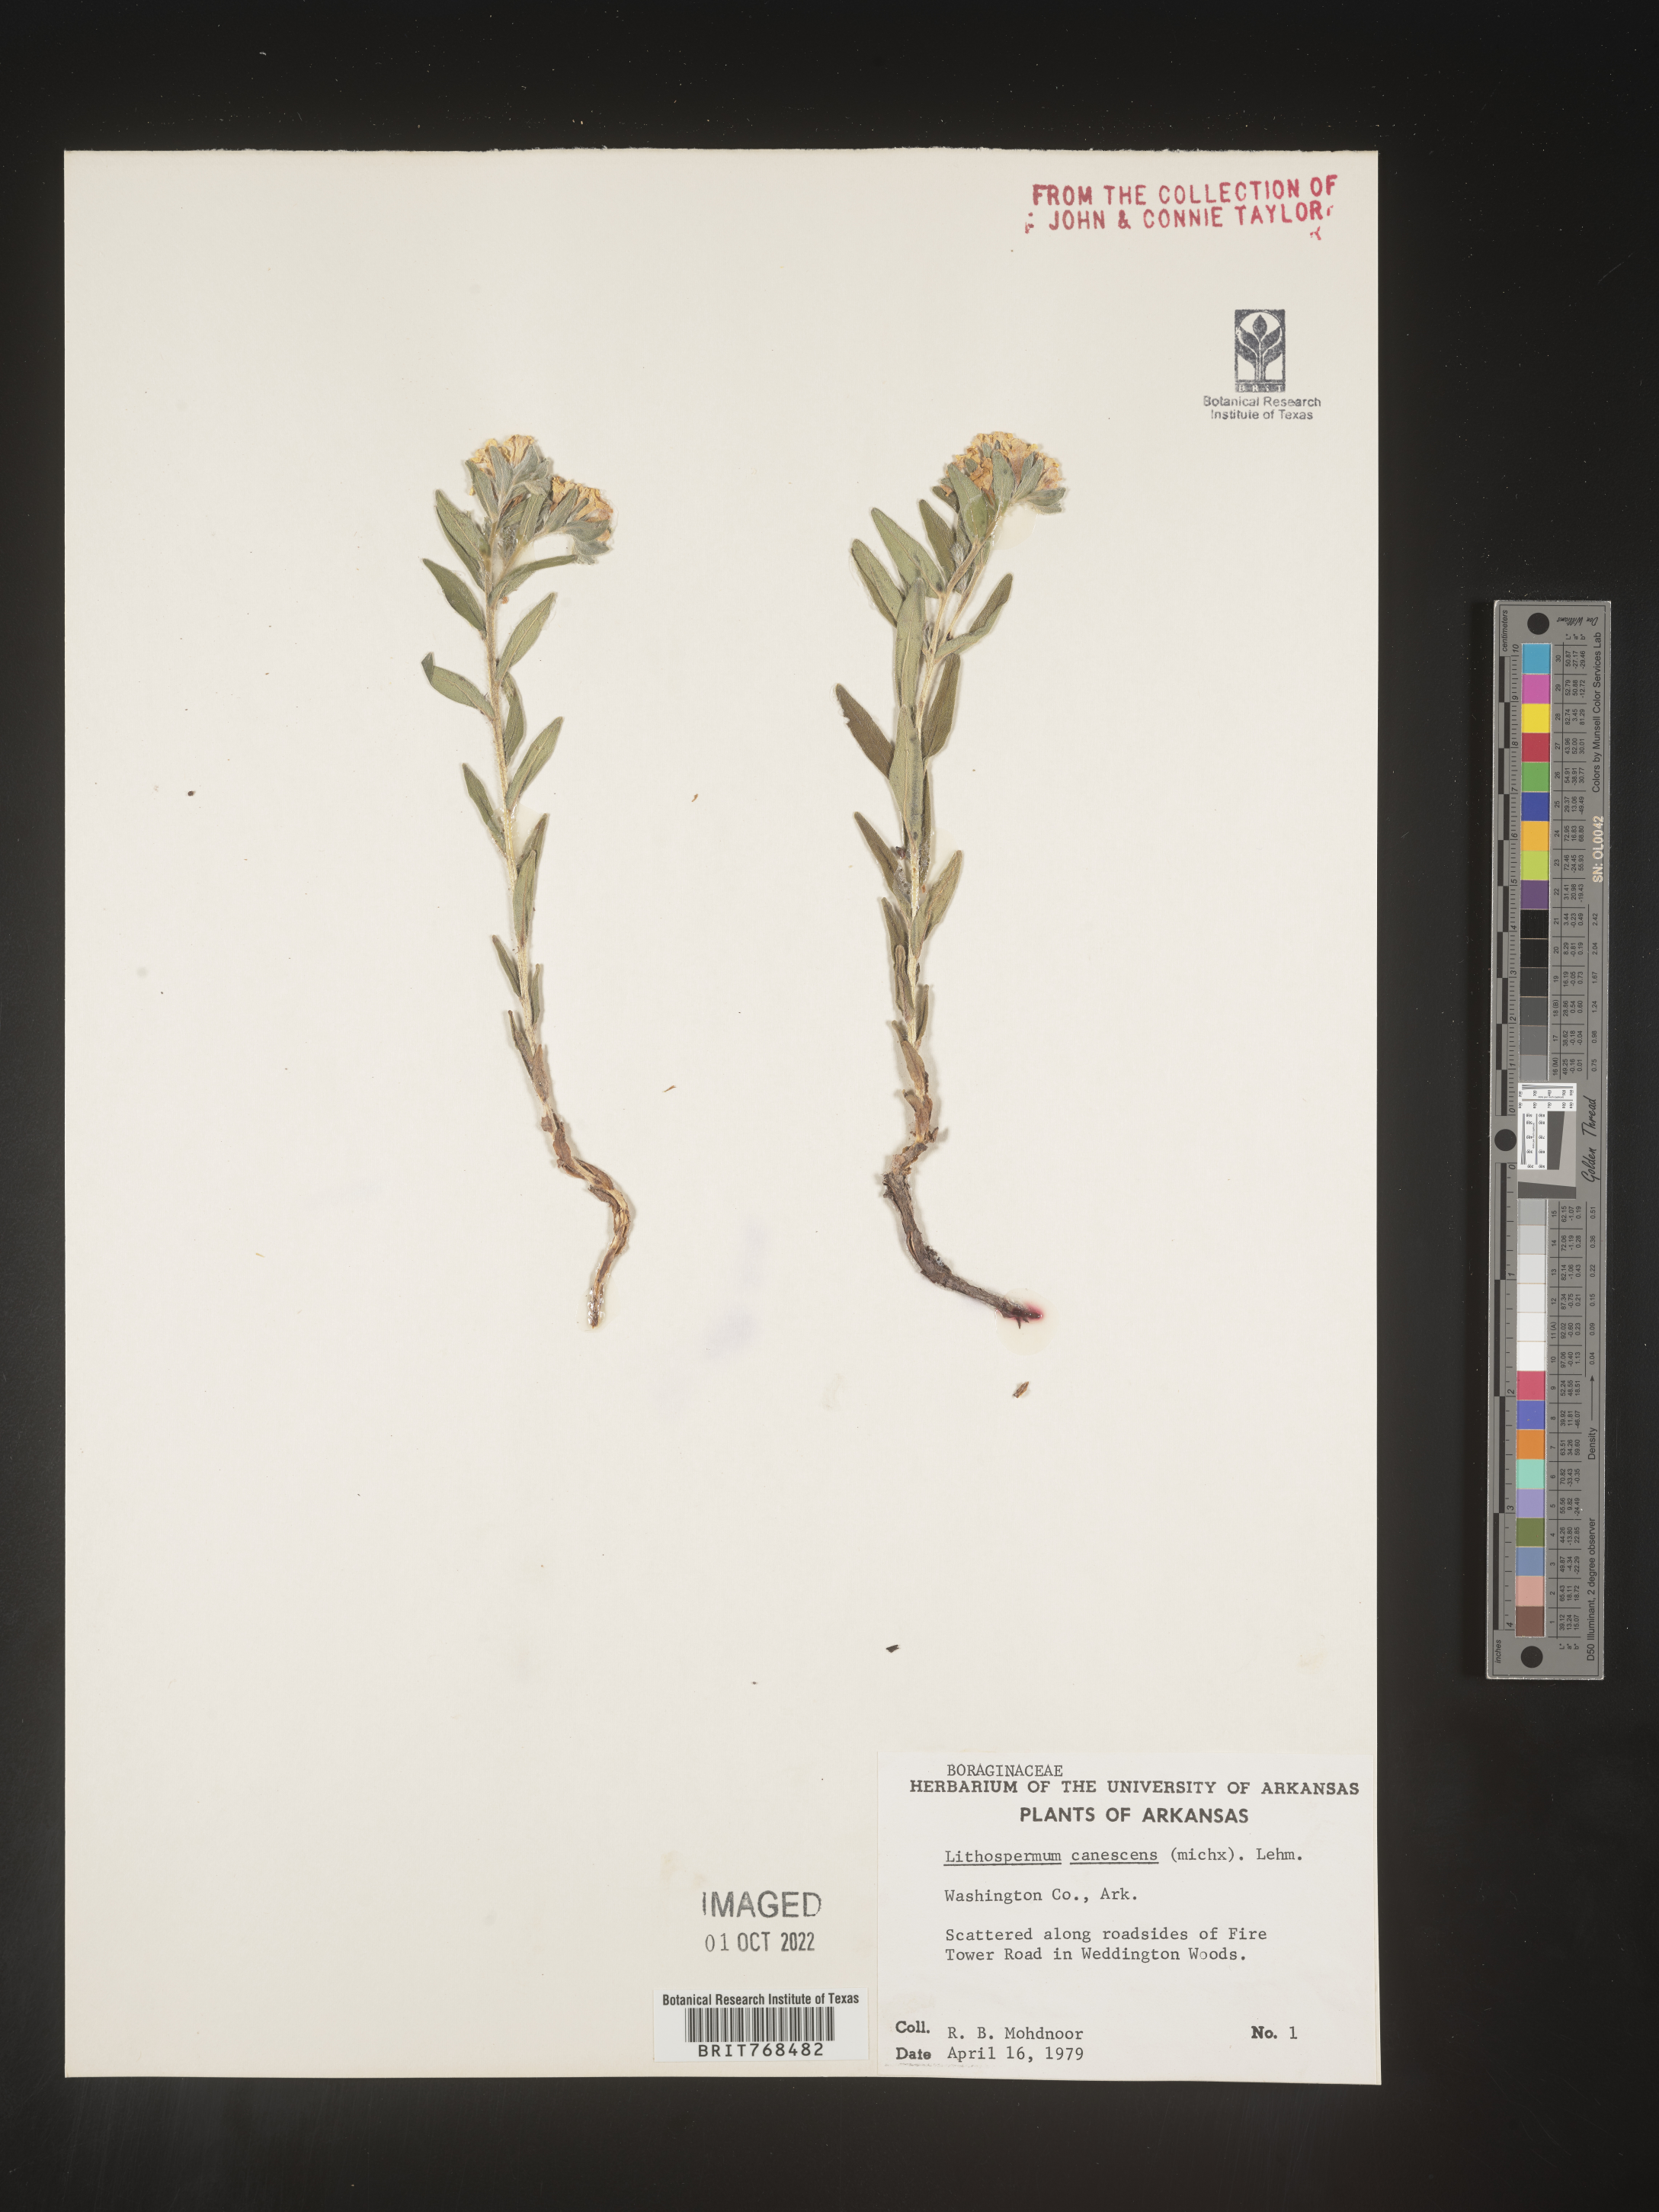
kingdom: Plantae
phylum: Tracheophyta
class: Magnoliopsida
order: Boraginales
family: Boraginaceae
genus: Lithospermum
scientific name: Lithospermum canescens
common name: Hoary puccoon
